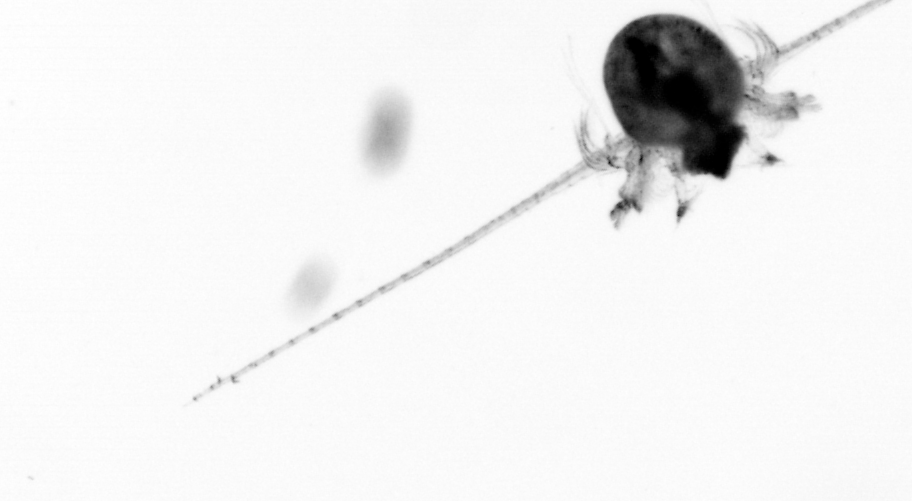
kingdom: Animalia
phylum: Arthropoda
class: Copepoda
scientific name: Copepoda
